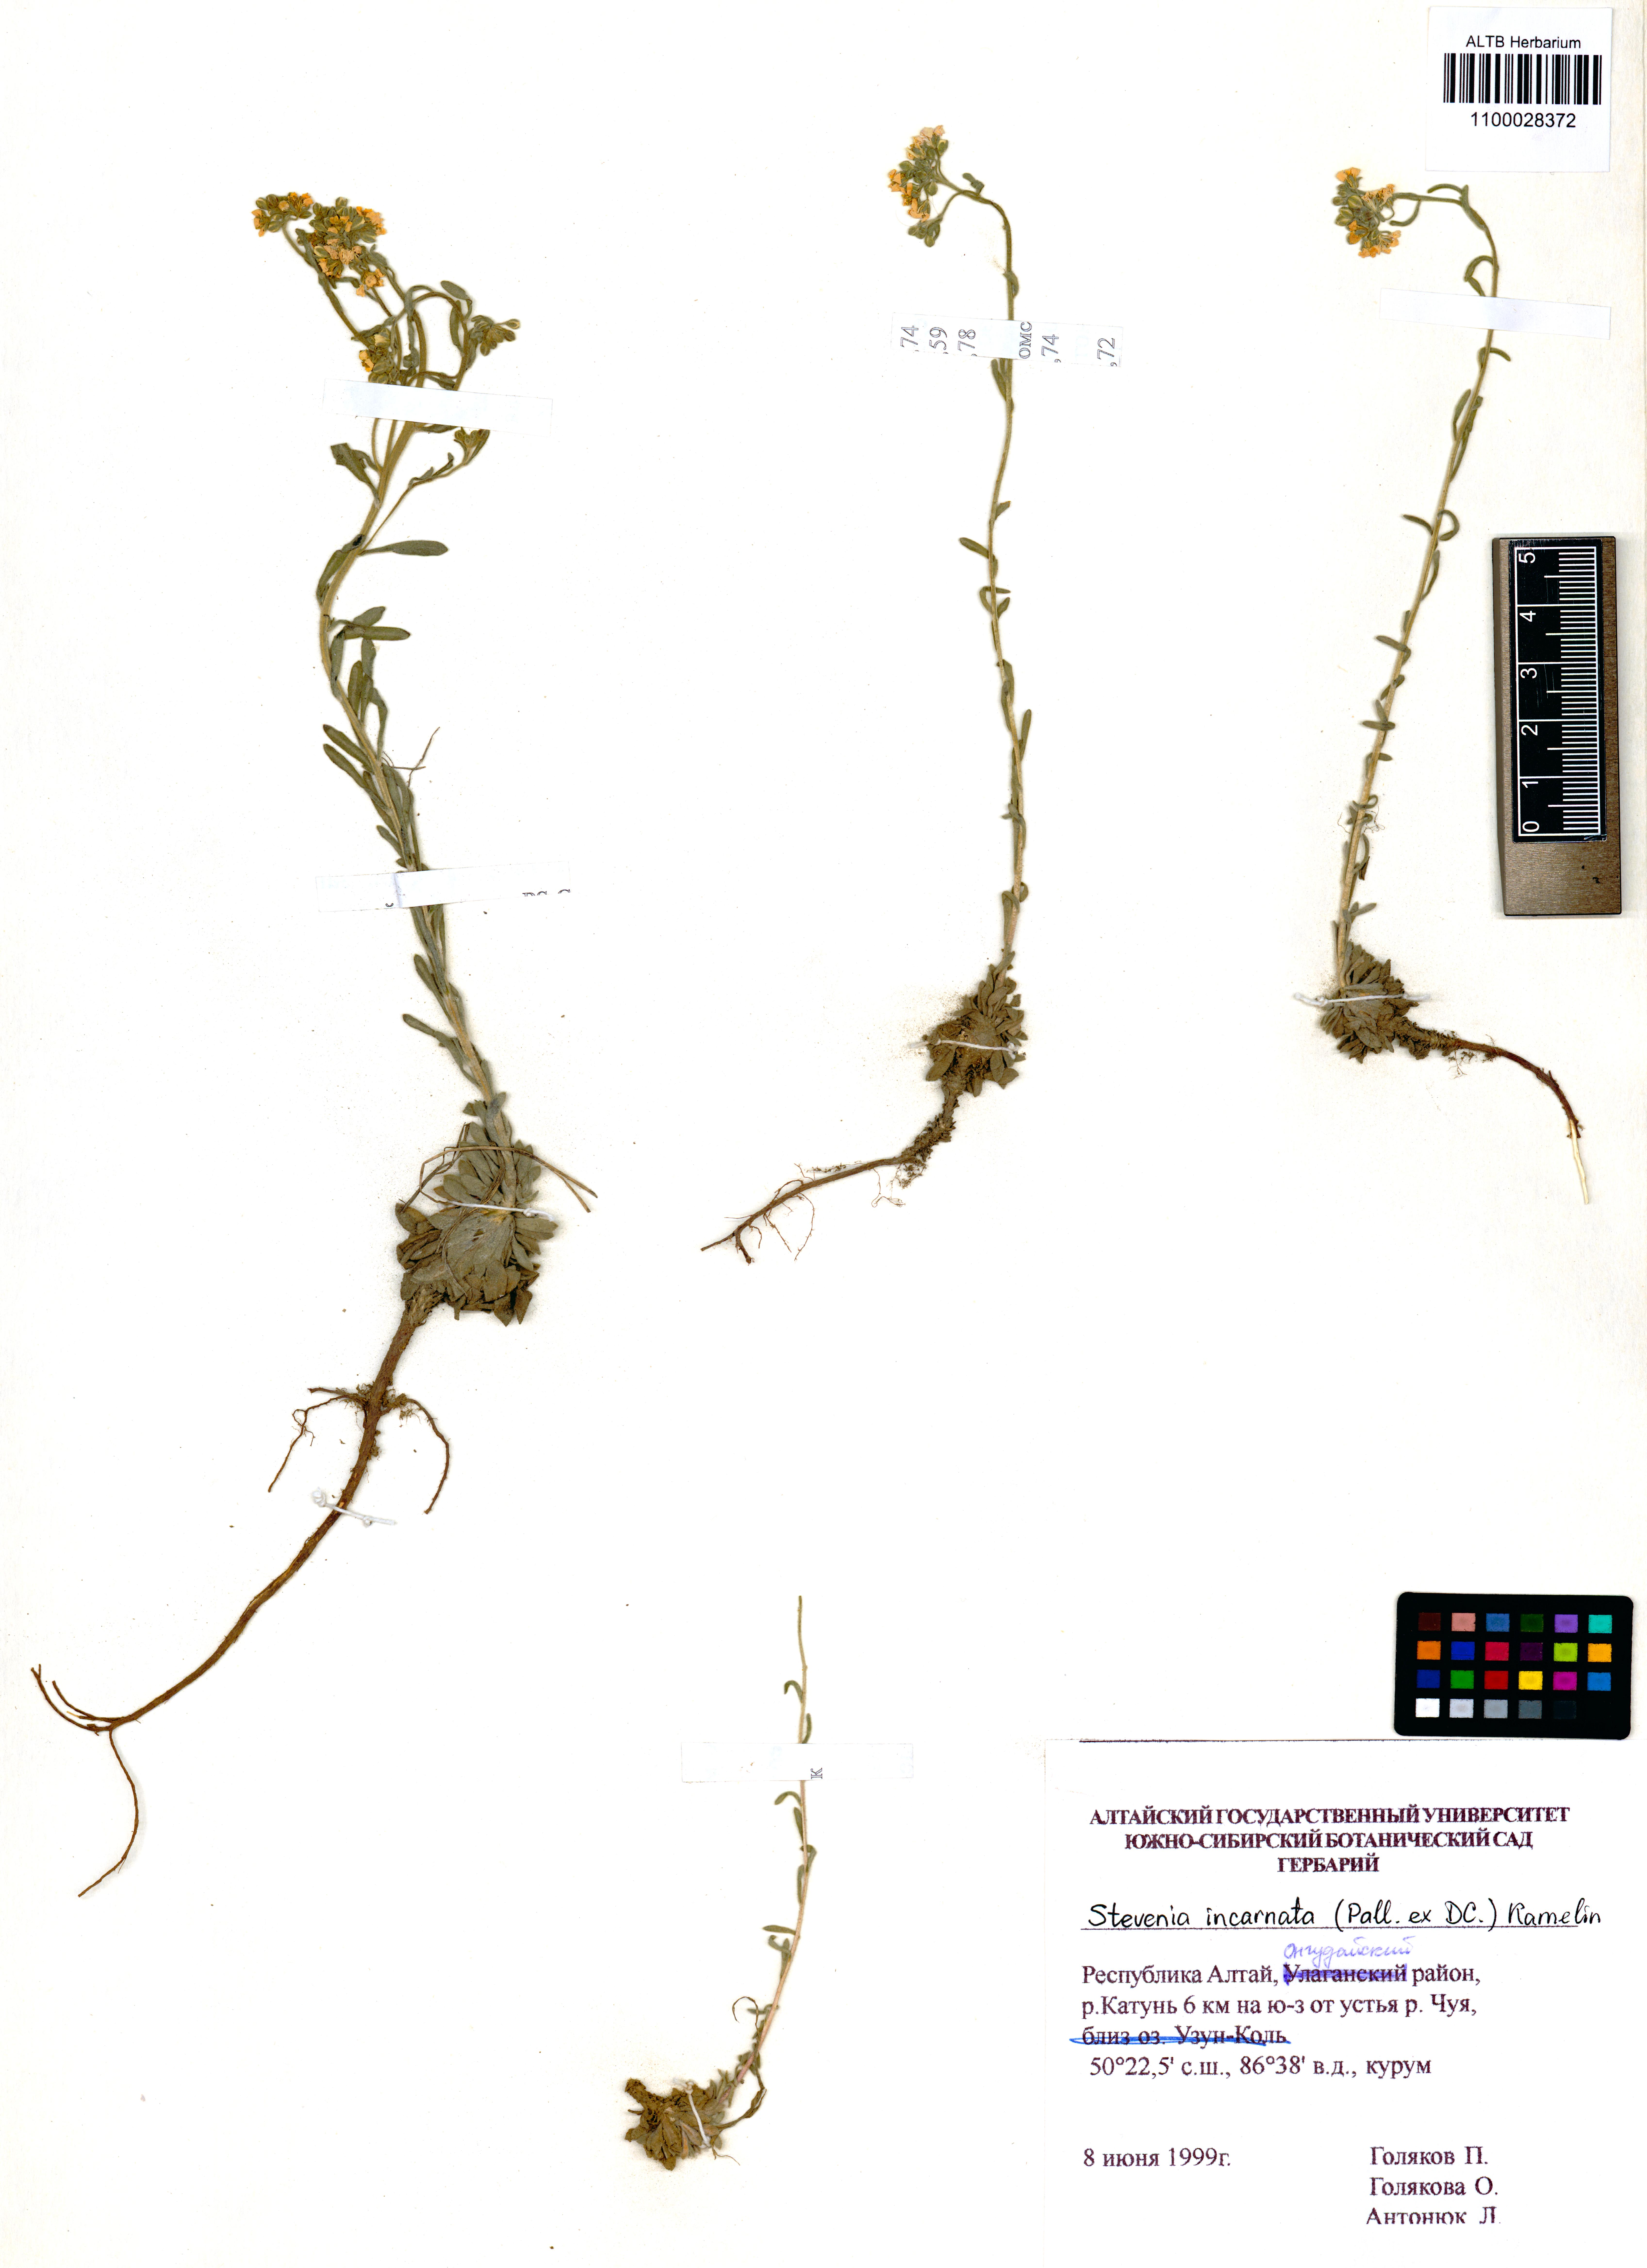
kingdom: Plantae
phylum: Tracheophyta
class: Magnoliopsida
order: Brassicales
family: Brassicaceae
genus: Stevenia
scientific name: Stevenia incarnata
